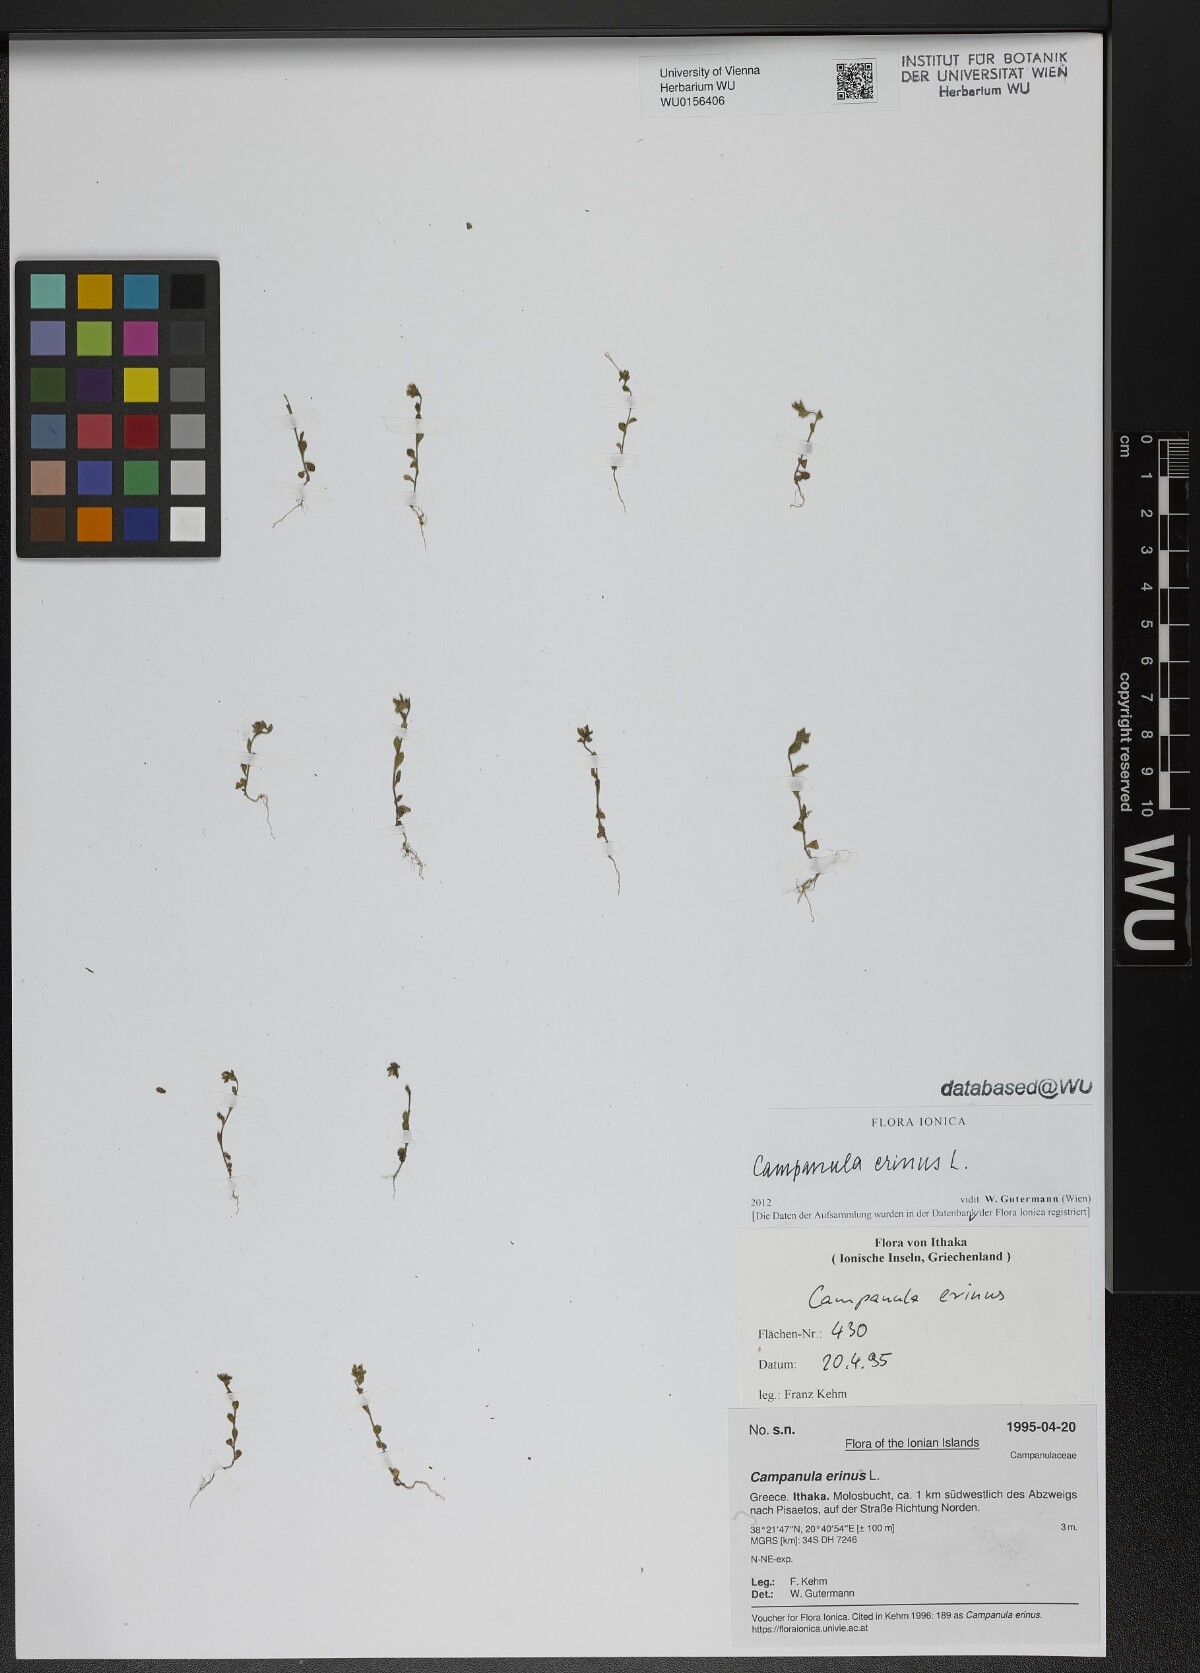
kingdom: Plantae
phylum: Tracheophyta
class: Magnoliopsida
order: Asterales
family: Campanulaceae
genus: Campanula
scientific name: Campanula erinus
